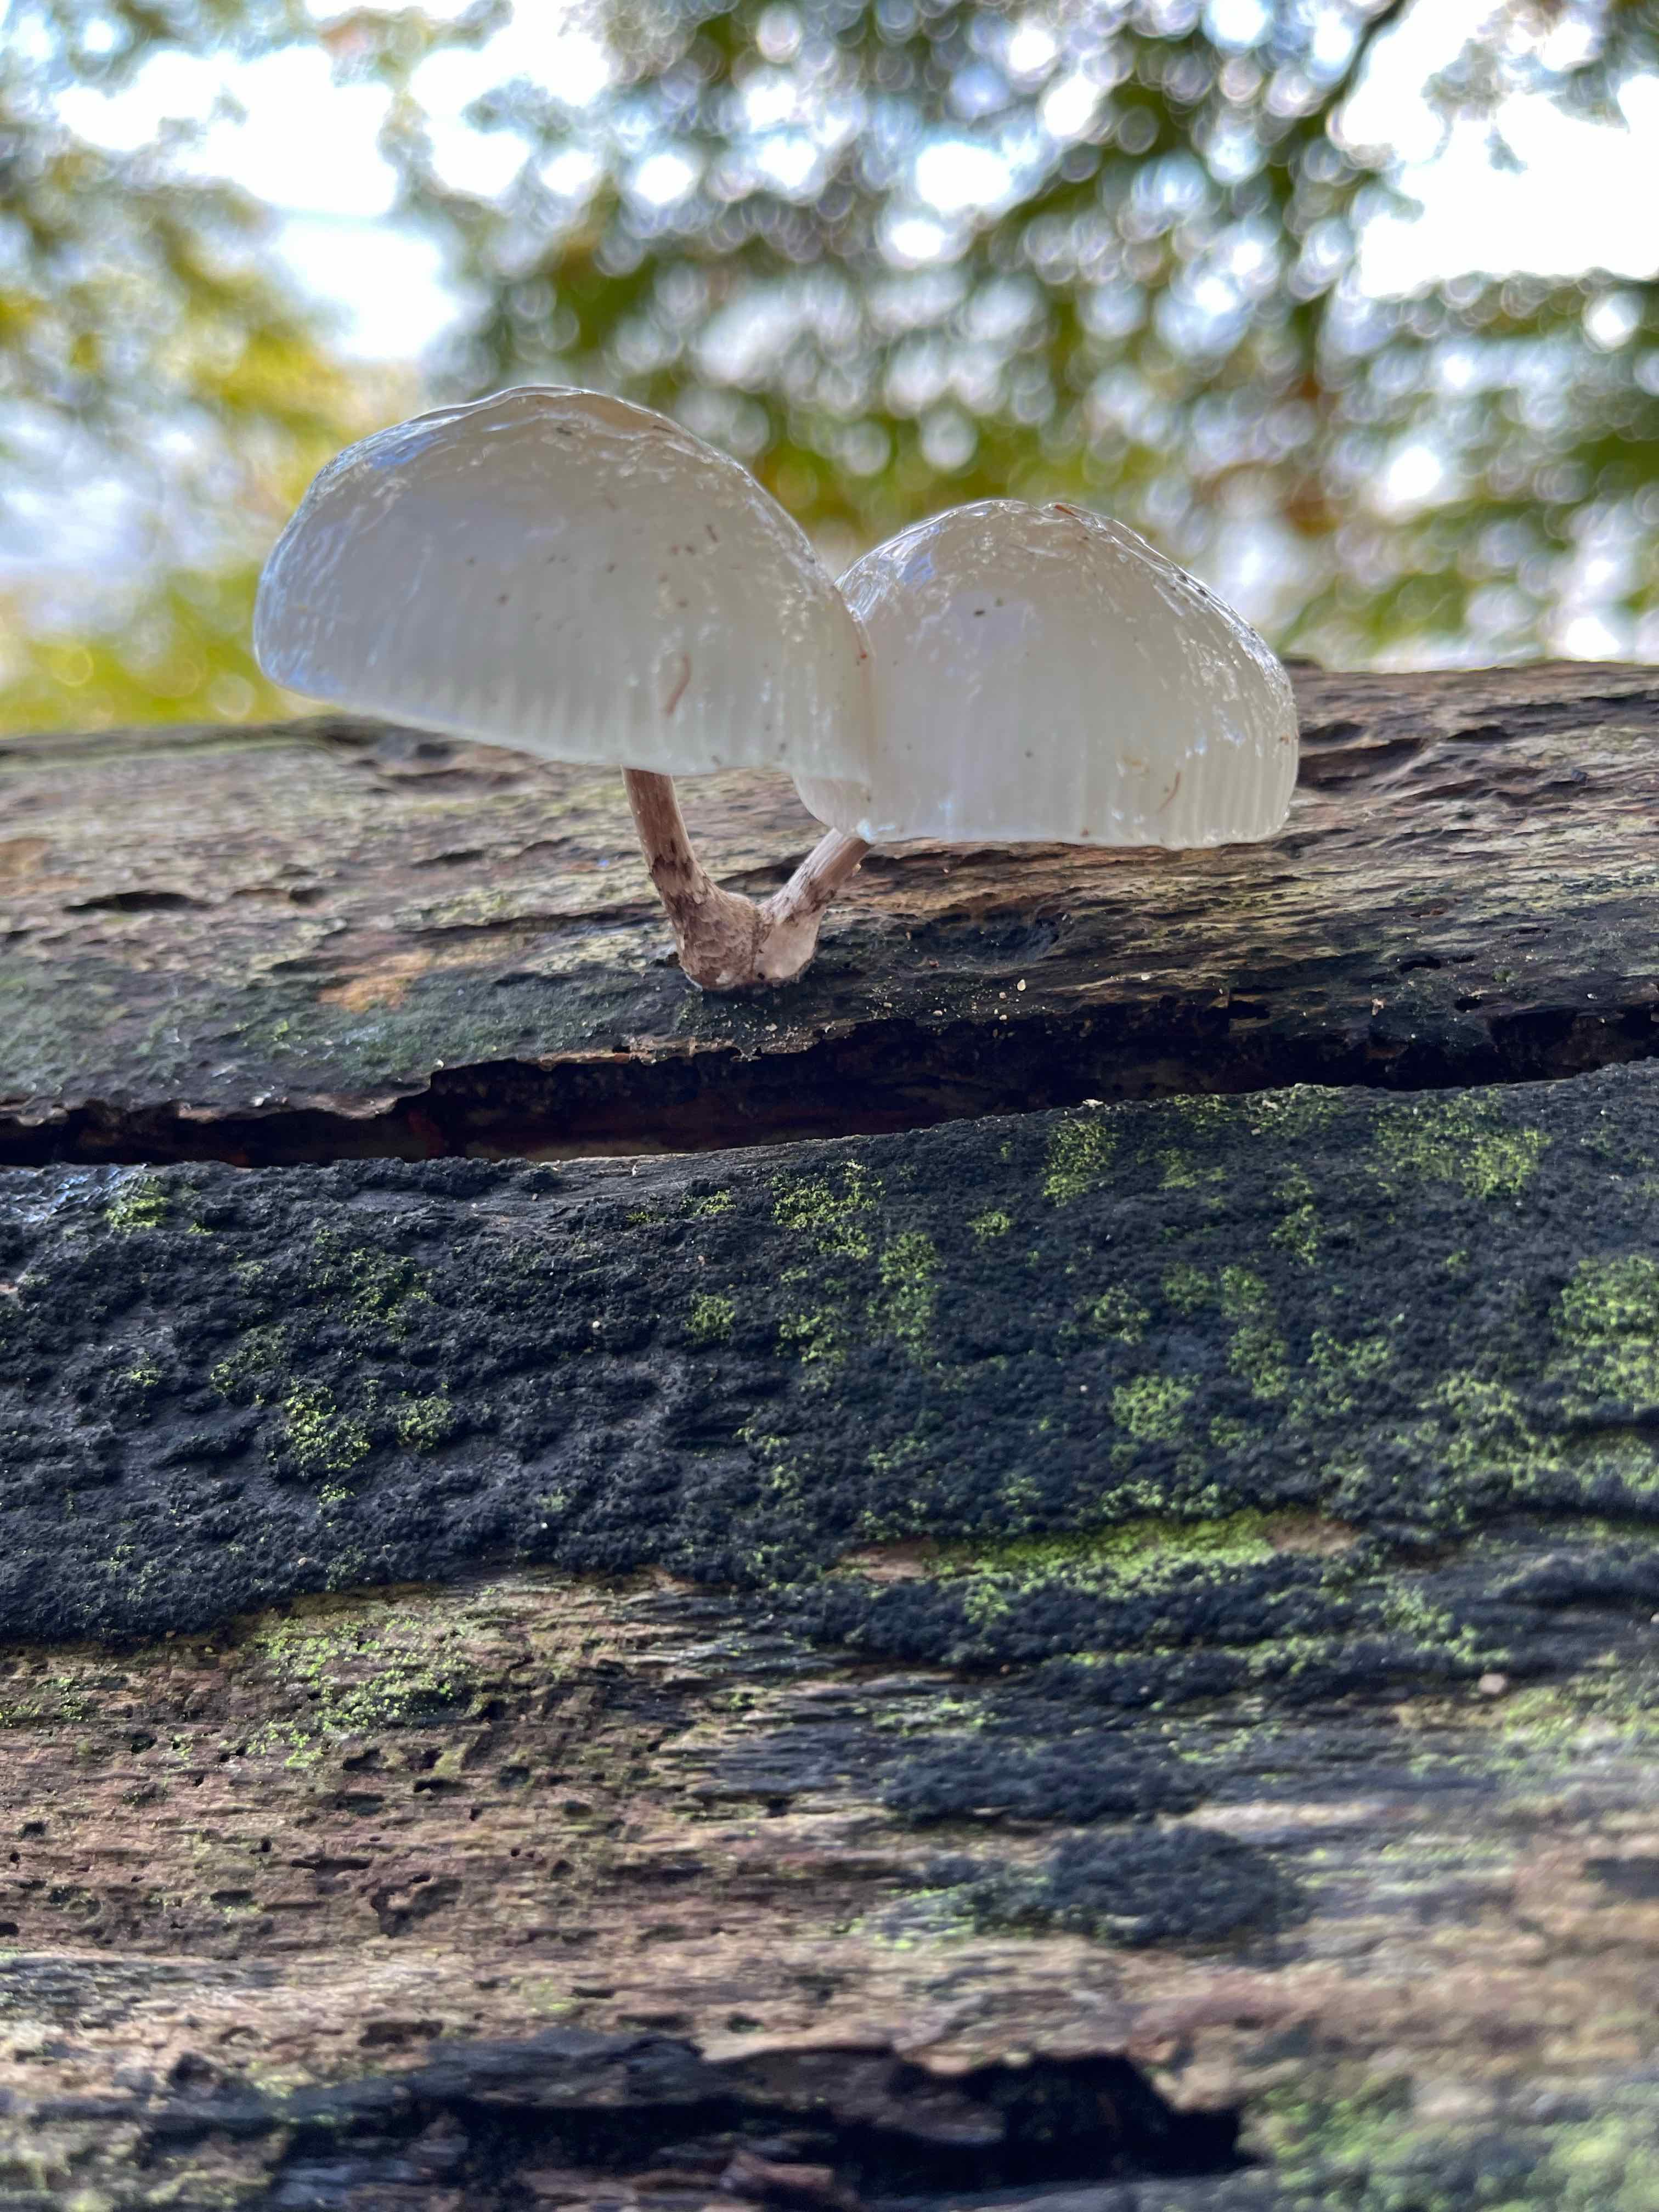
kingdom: Fungi
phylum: Basidiomycota
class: Agaricomycetes
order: Agaricales
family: Physalacriaceae
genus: Mucidula
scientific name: Mucidula mucida
